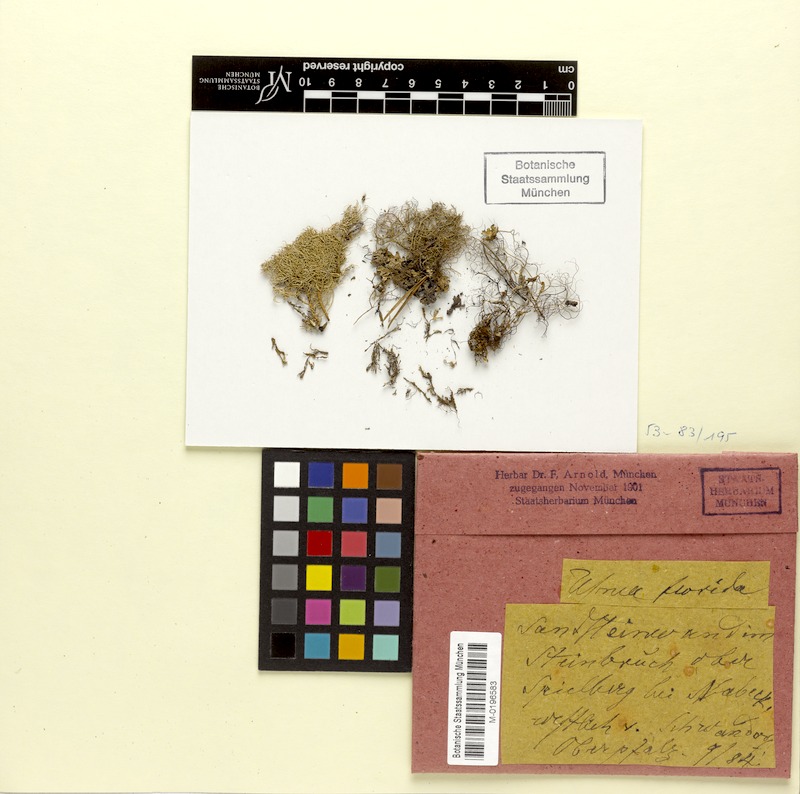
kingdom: Fungi
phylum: Ascomycota
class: Lecanoromycetes
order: Lecanorales
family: Parmeliaceae
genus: Usnea
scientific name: Usnea florida
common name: Witches' whiskers lichen
